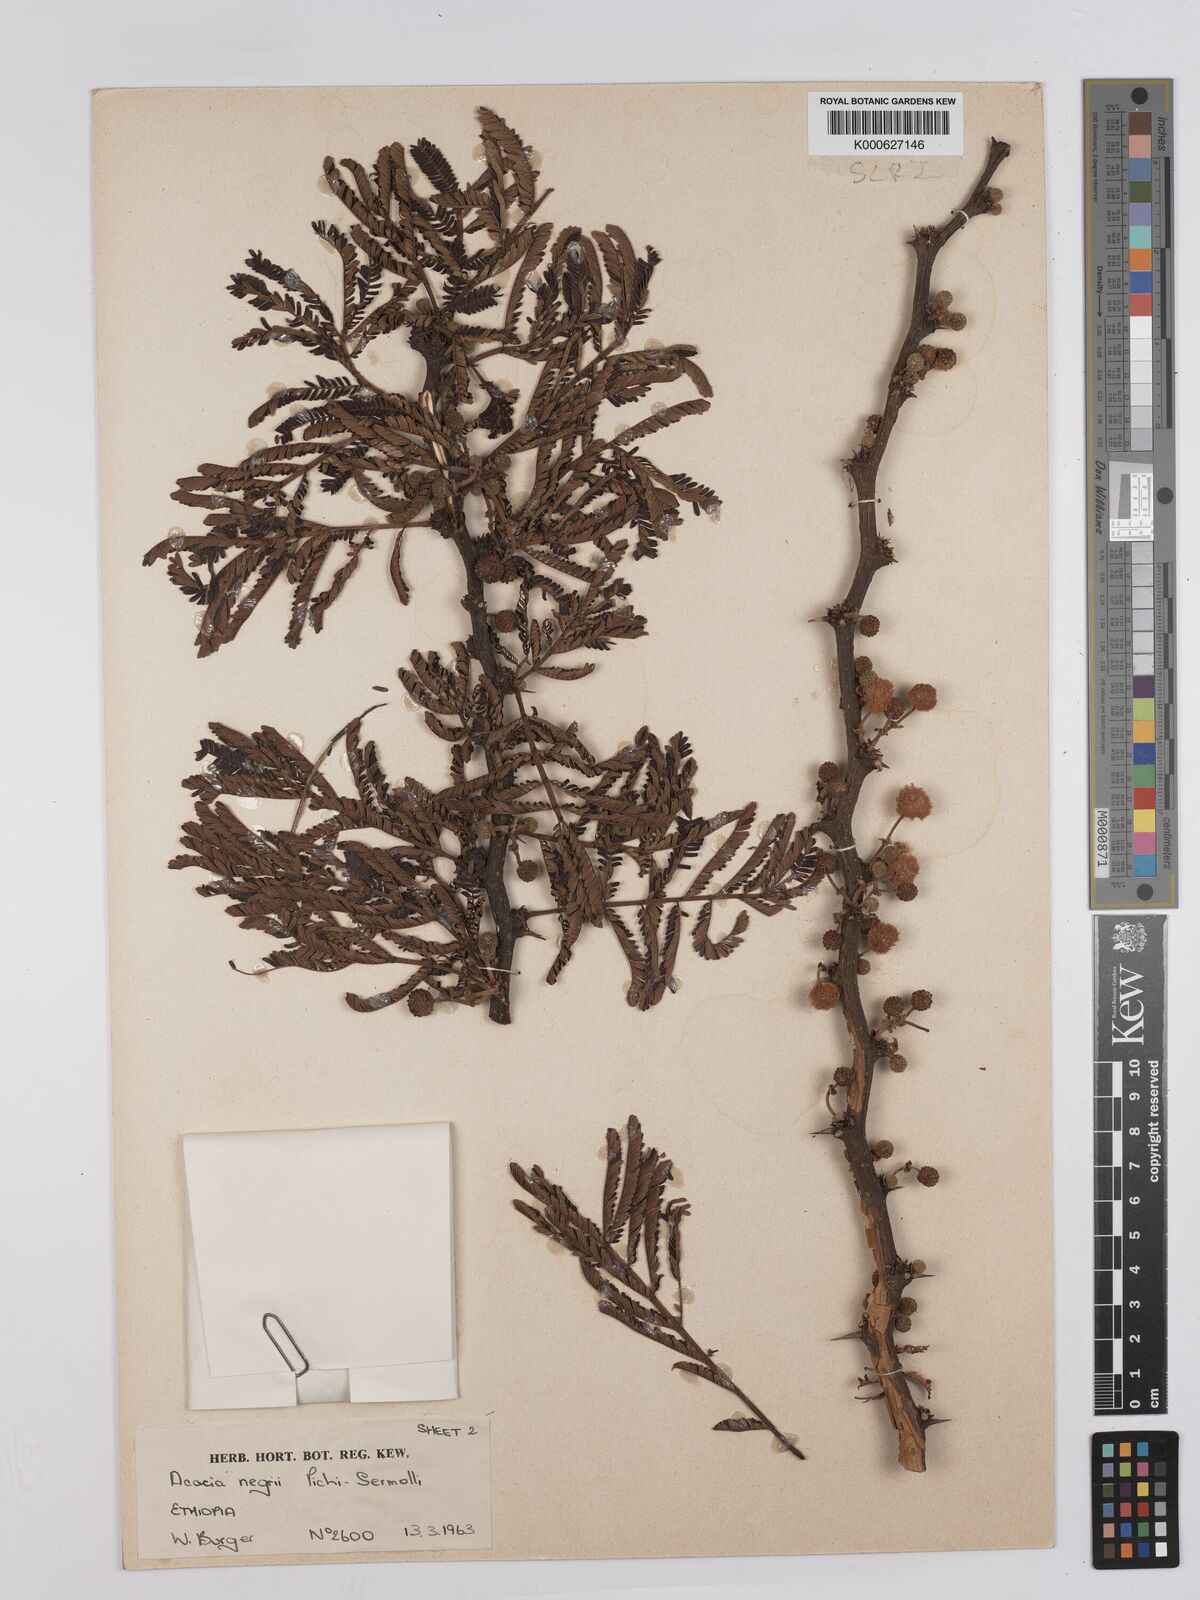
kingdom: Plantae
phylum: Tracheophyta
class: Magnoliopsida
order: Fabales
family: Fabaceae
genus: Vachellia
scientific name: Vachellia negrii
